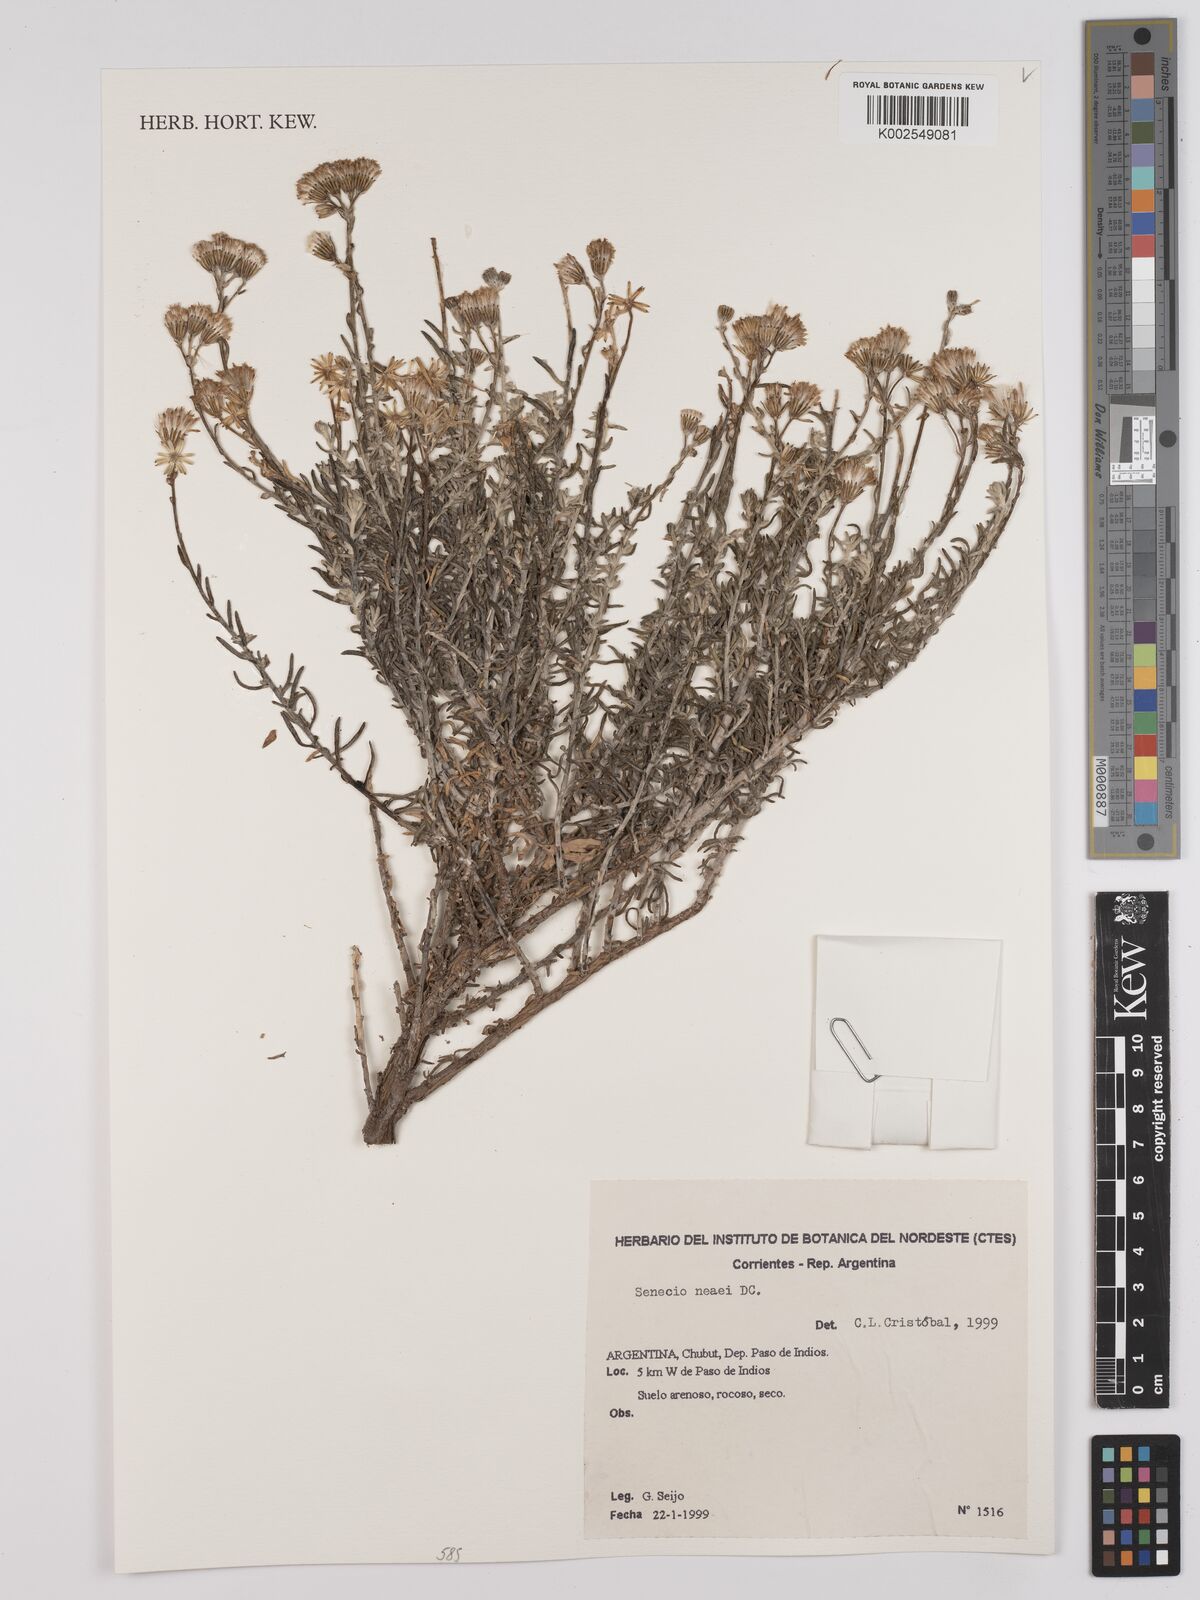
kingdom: Plantae
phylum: Tracheophyta
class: Magnoliopsida
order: Asterales
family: Asteraceae
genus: Senecio
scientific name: Senecio neaei
